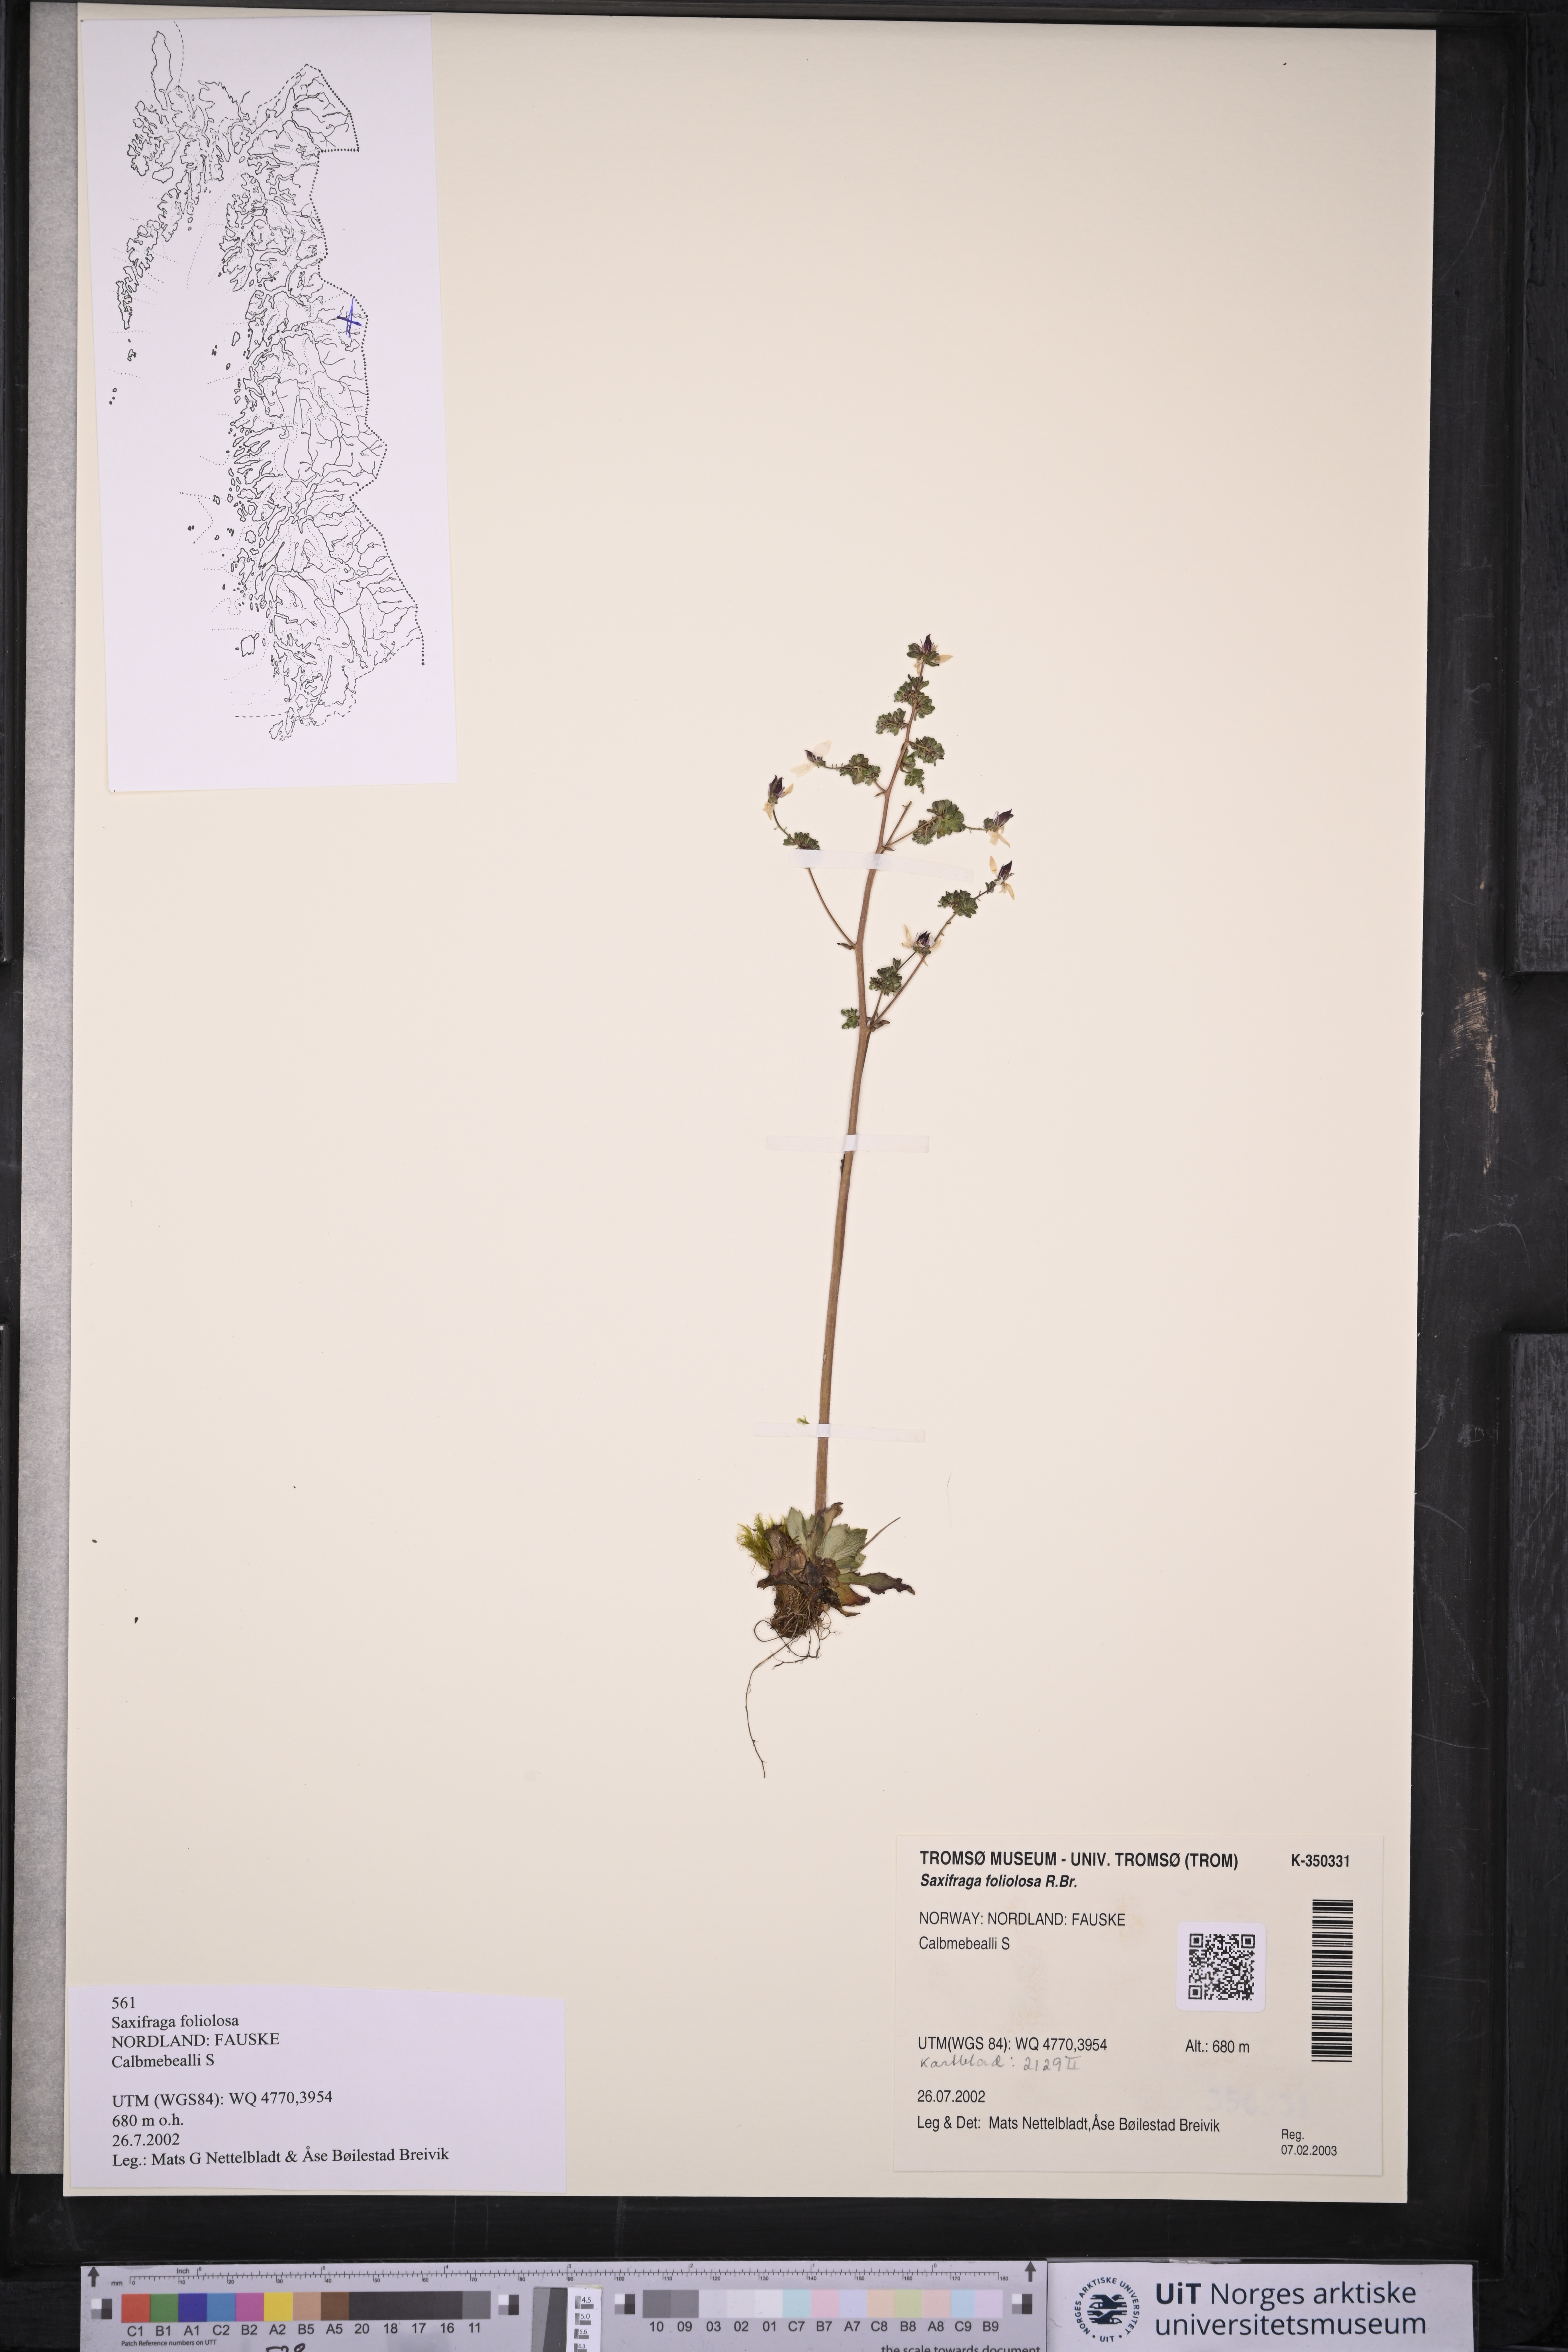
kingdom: Plantae
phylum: Tracheophyta
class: Magnoliopsida
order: Saxifragales
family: Saxifragaceae
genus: Micranthes
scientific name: Micranthes foliolosa
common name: Leafystem saxifrage
